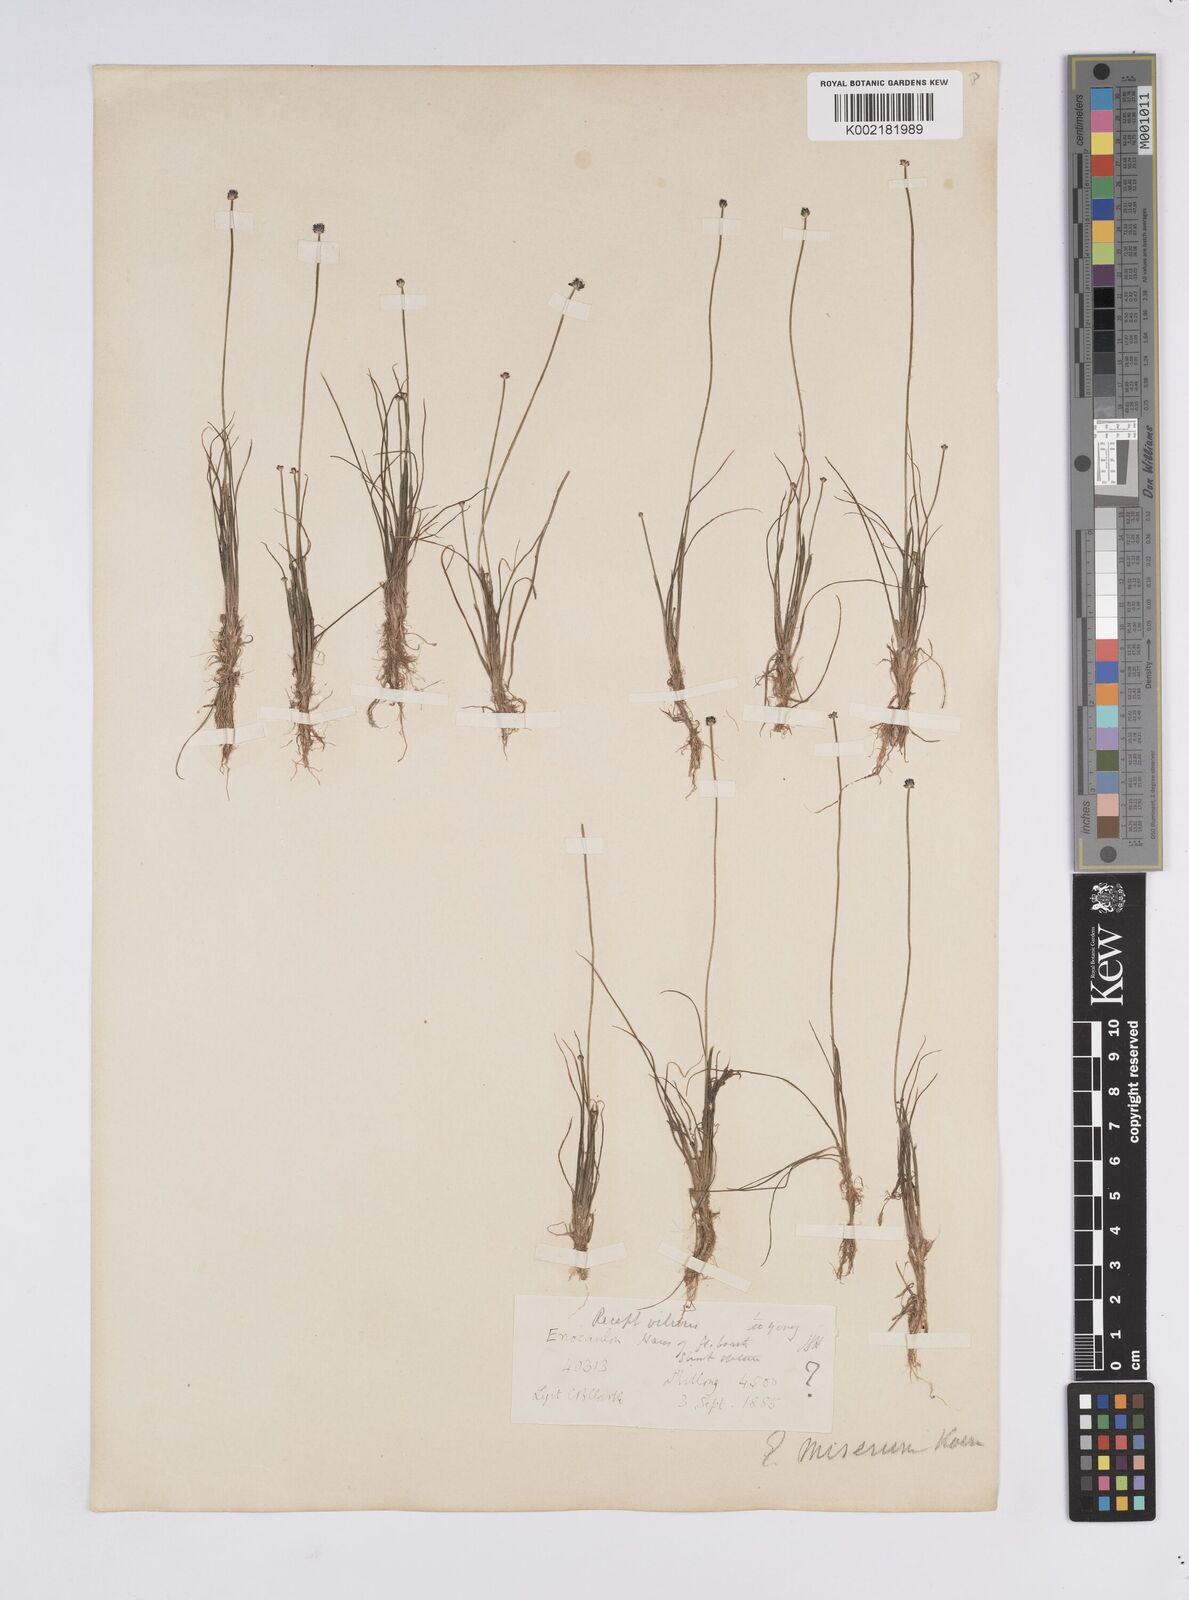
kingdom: Plantae
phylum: Tracheophyta
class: Liliopsida
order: Poales
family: Eriocaulaceae
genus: Eriocaulon
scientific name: Eriocaulon miserum
